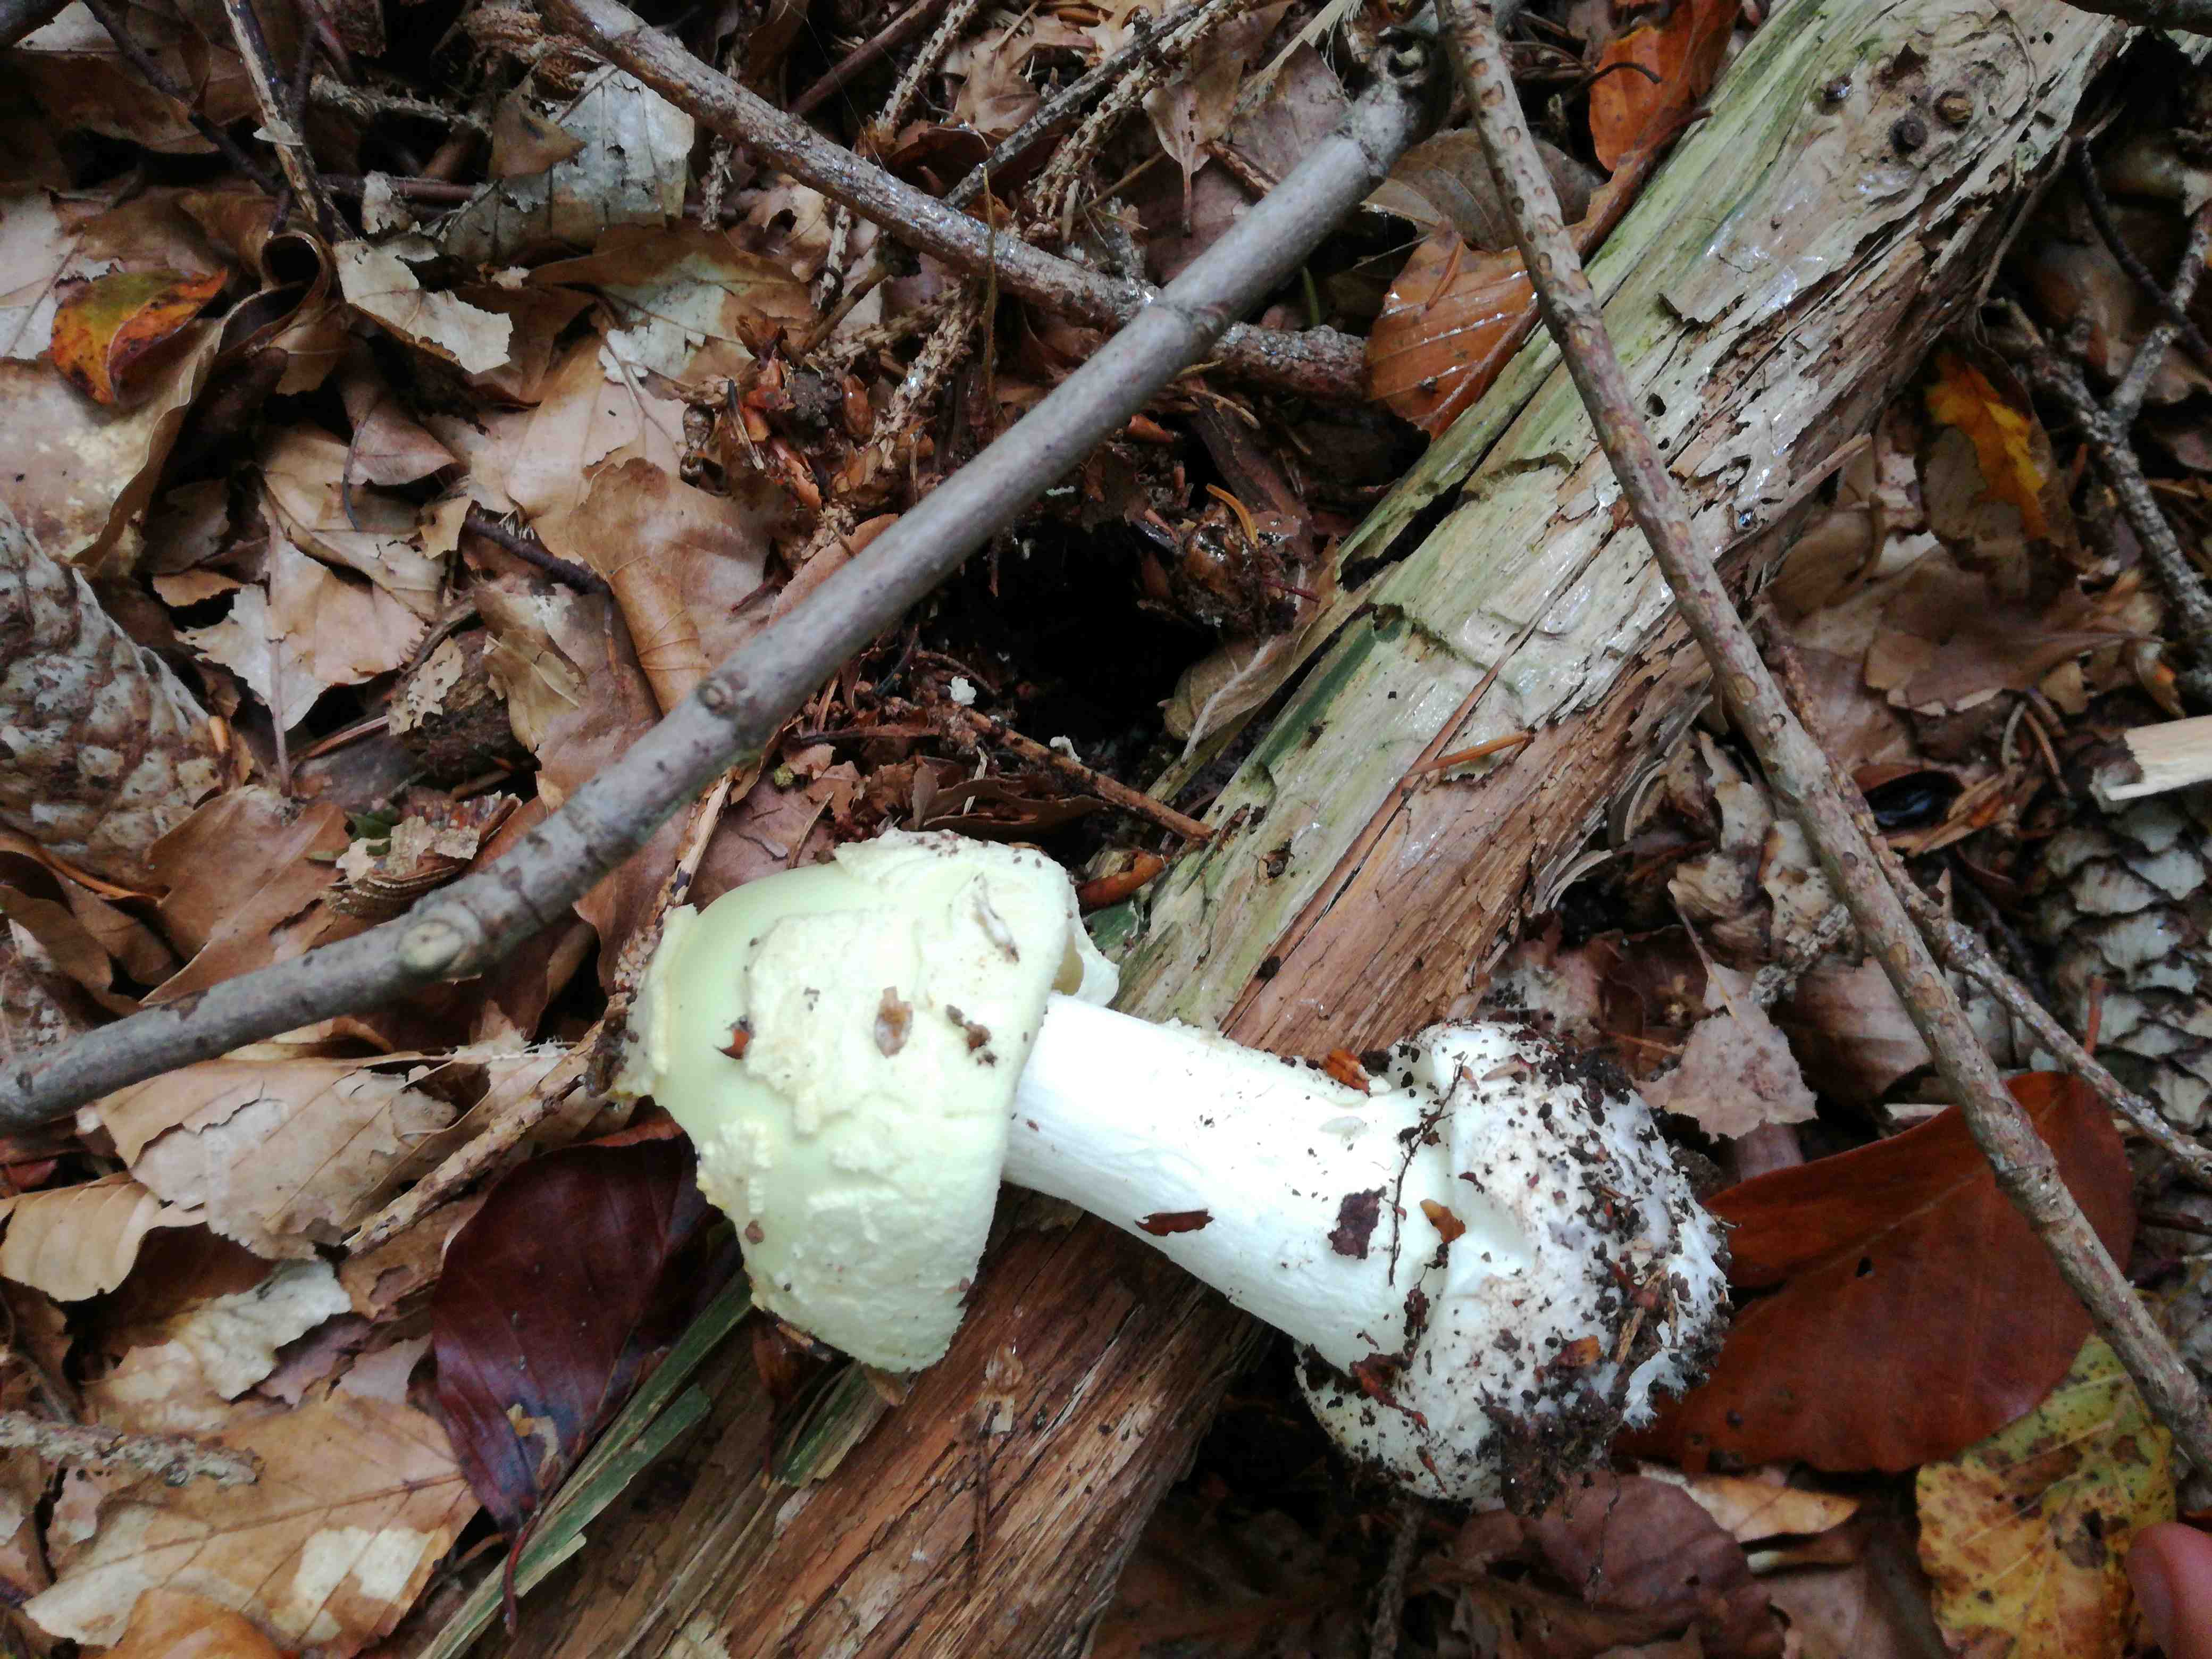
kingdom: Fungi
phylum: Basidiomycota
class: Agaricomycetes
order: Agaricales
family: Amanitaceae
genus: Amanita
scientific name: Amanita citrina
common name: kugleknoldet fluesvamp
